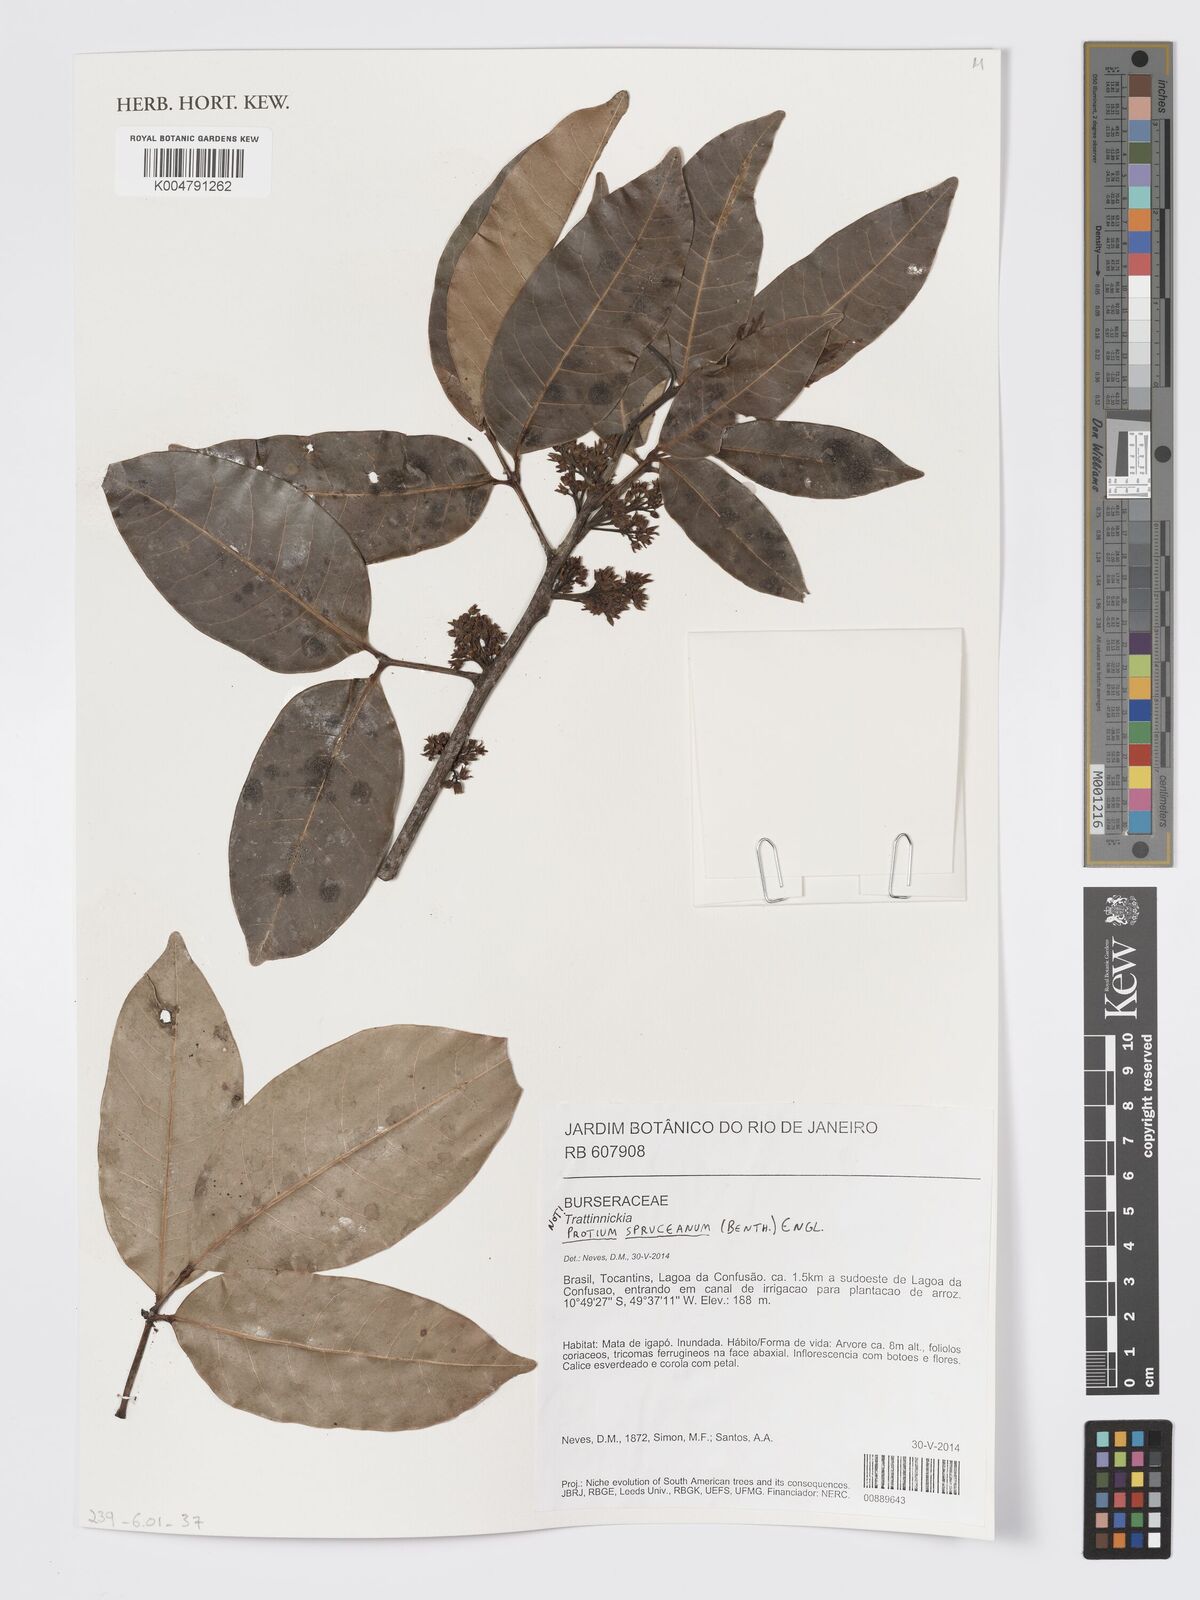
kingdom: Plantae
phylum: Tracheophyta
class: Magnoliopsida
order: Sapindales
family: Burseraceae
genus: Protium
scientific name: Protium spruceanum
